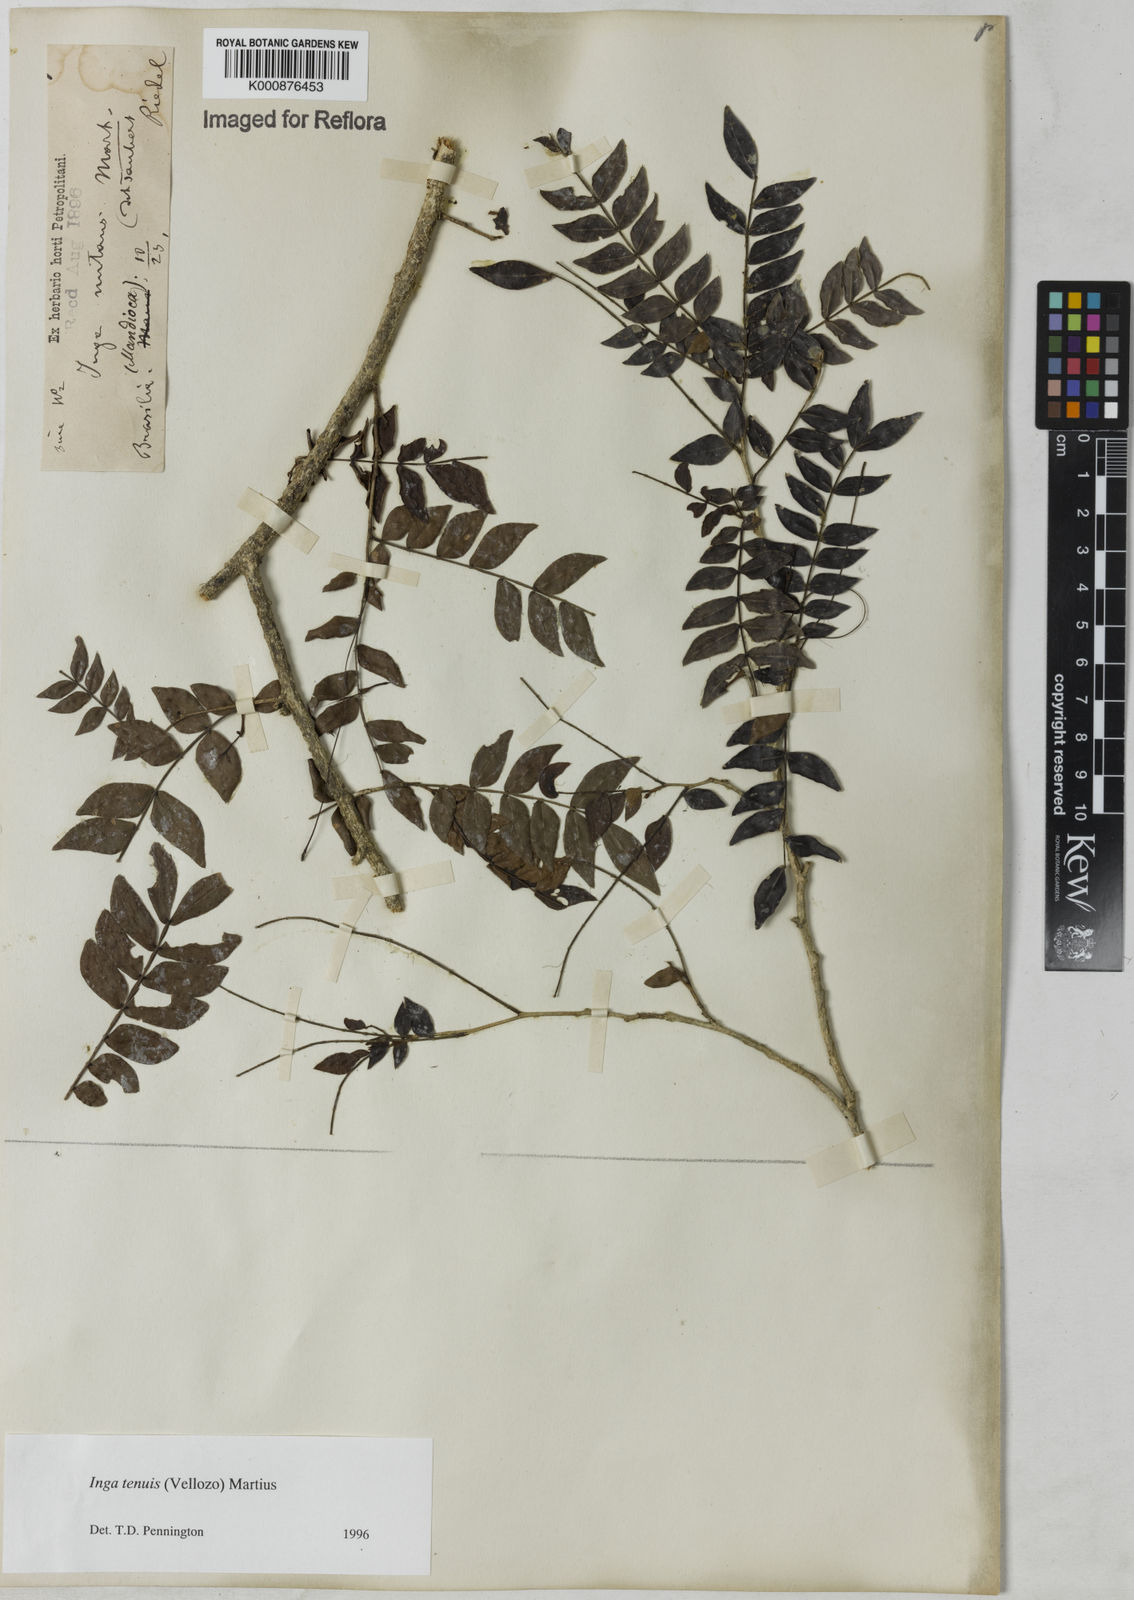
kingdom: Plantae
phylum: Tracheophyta
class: Magnoliopsida
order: Fabales
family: Fabaceae
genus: Inga
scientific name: Inga tenuis
